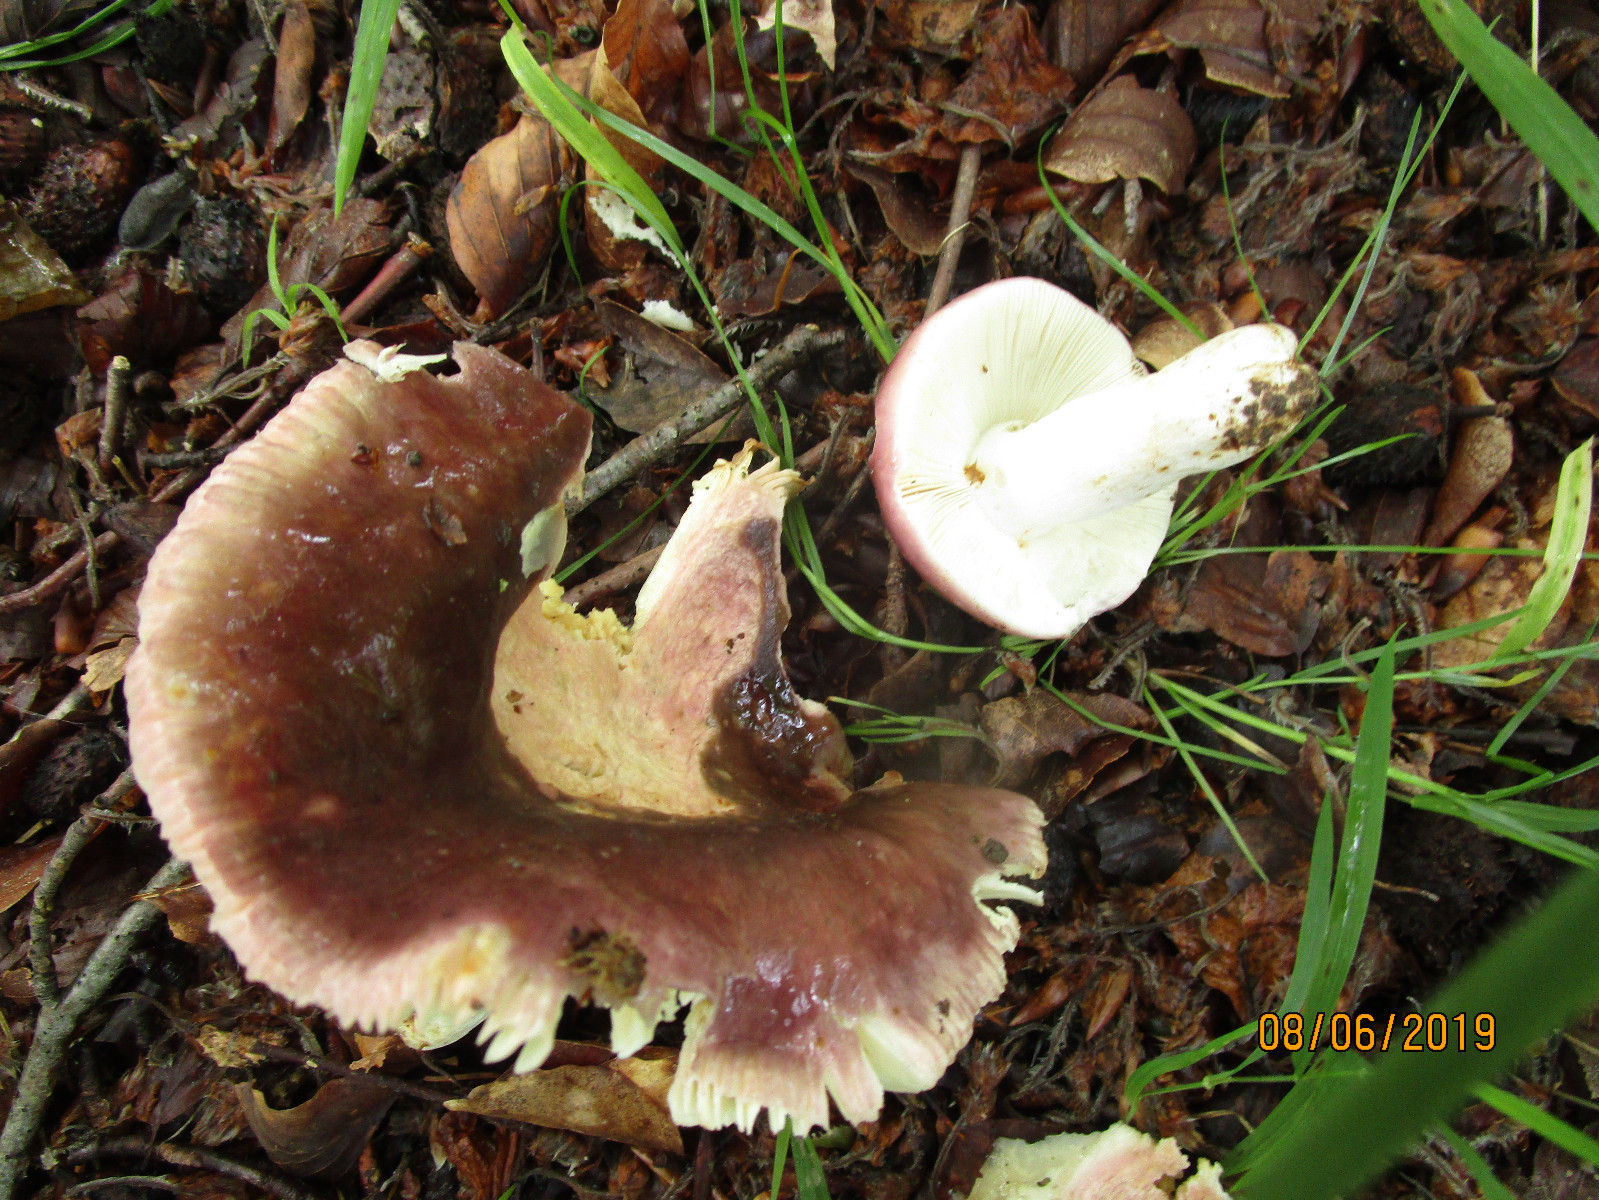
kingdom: Fungi
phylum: Basidiomycota
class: Agaricomycetes
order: Russulales
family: Russulaceae
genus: Russula
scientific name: Russula vesca
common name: spiselig skørhat
